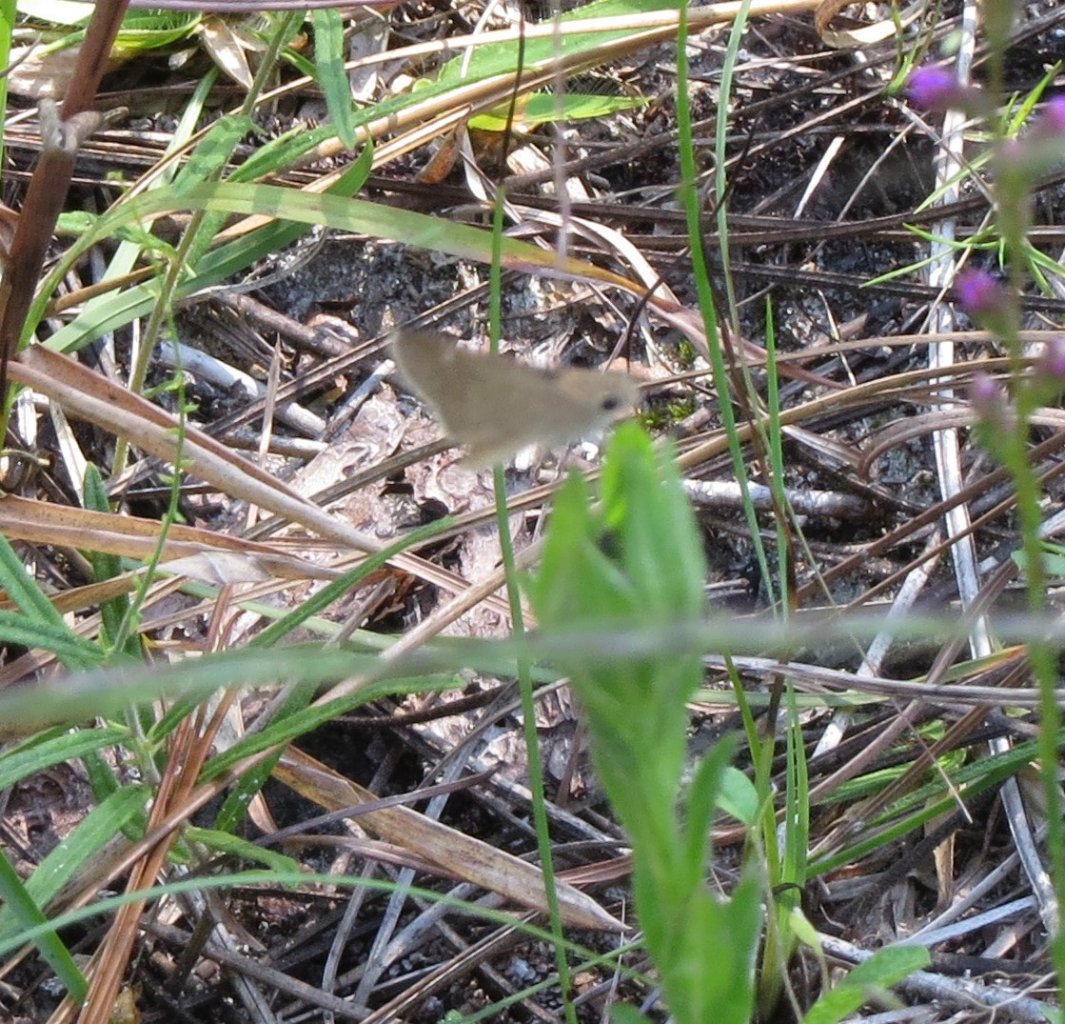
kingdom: Animalia
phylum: Arthropoda
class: Insecta
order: Lepidoptera
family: Hesperiidae
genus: Lerodea
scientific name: Lerodea eufala
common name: Eufala Skipper
